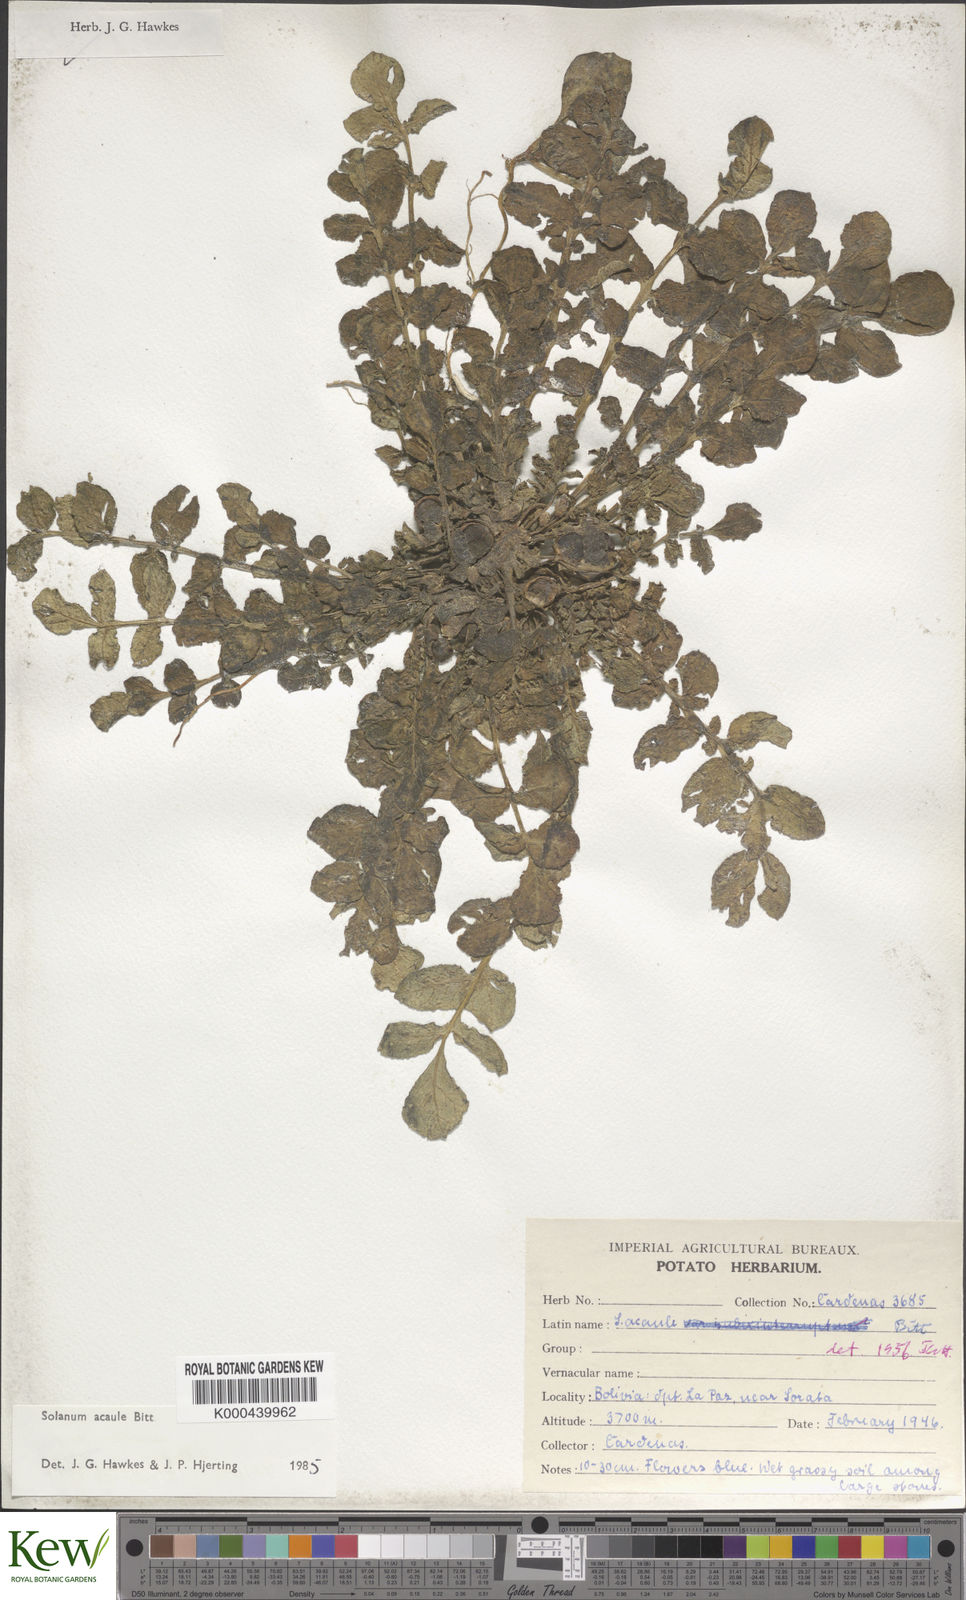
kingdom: Plantae
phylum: Tracheophyta
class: Magnoliopsida
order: Solanales
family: Solanaceae
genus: Solanum
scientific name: Solanum acaule
